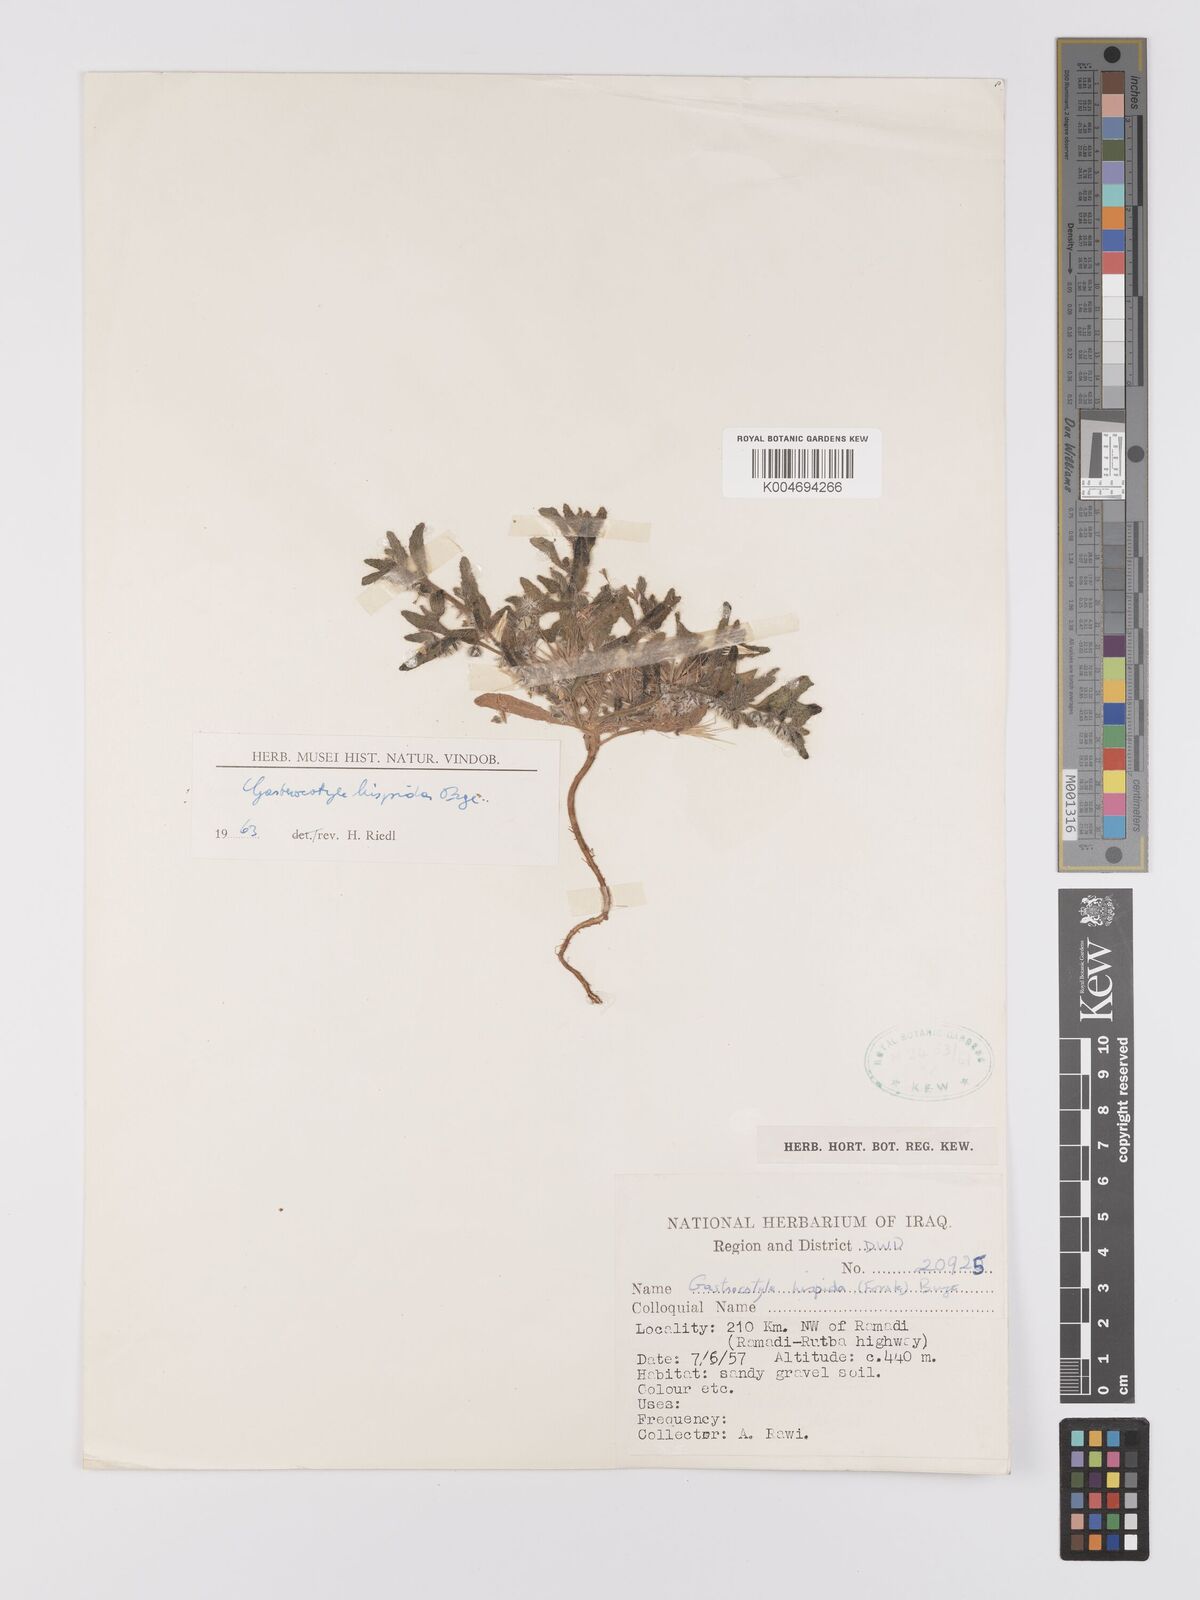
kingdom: Plantae
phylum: Tracheophyta
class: Magnoliopsida
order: Boraginales
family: Boraginaceae
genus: Gastrocotyle
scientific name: Gastrocotyle hispida
